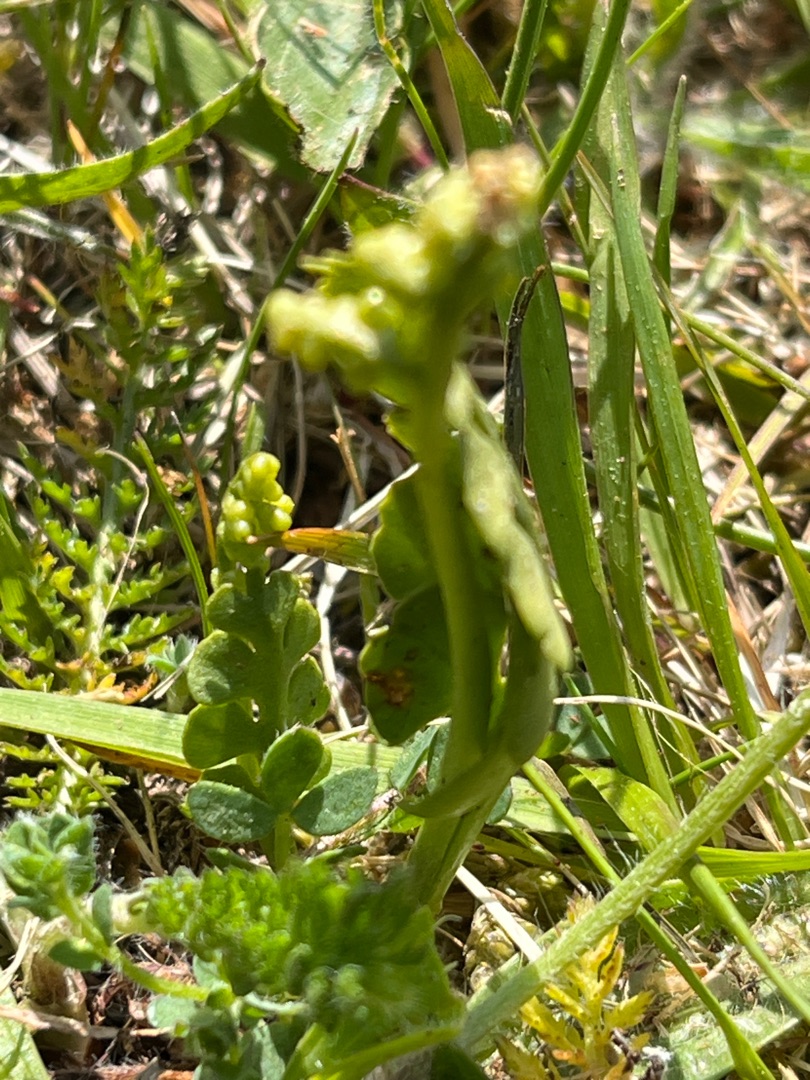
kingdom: Plantae
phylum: Tracheophyta
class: Polypodiopsida
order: Ophioglossales
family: Ophioglossaceae
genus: Botrychium
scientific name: Botrychium lunaria
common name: Almindelig månerude
